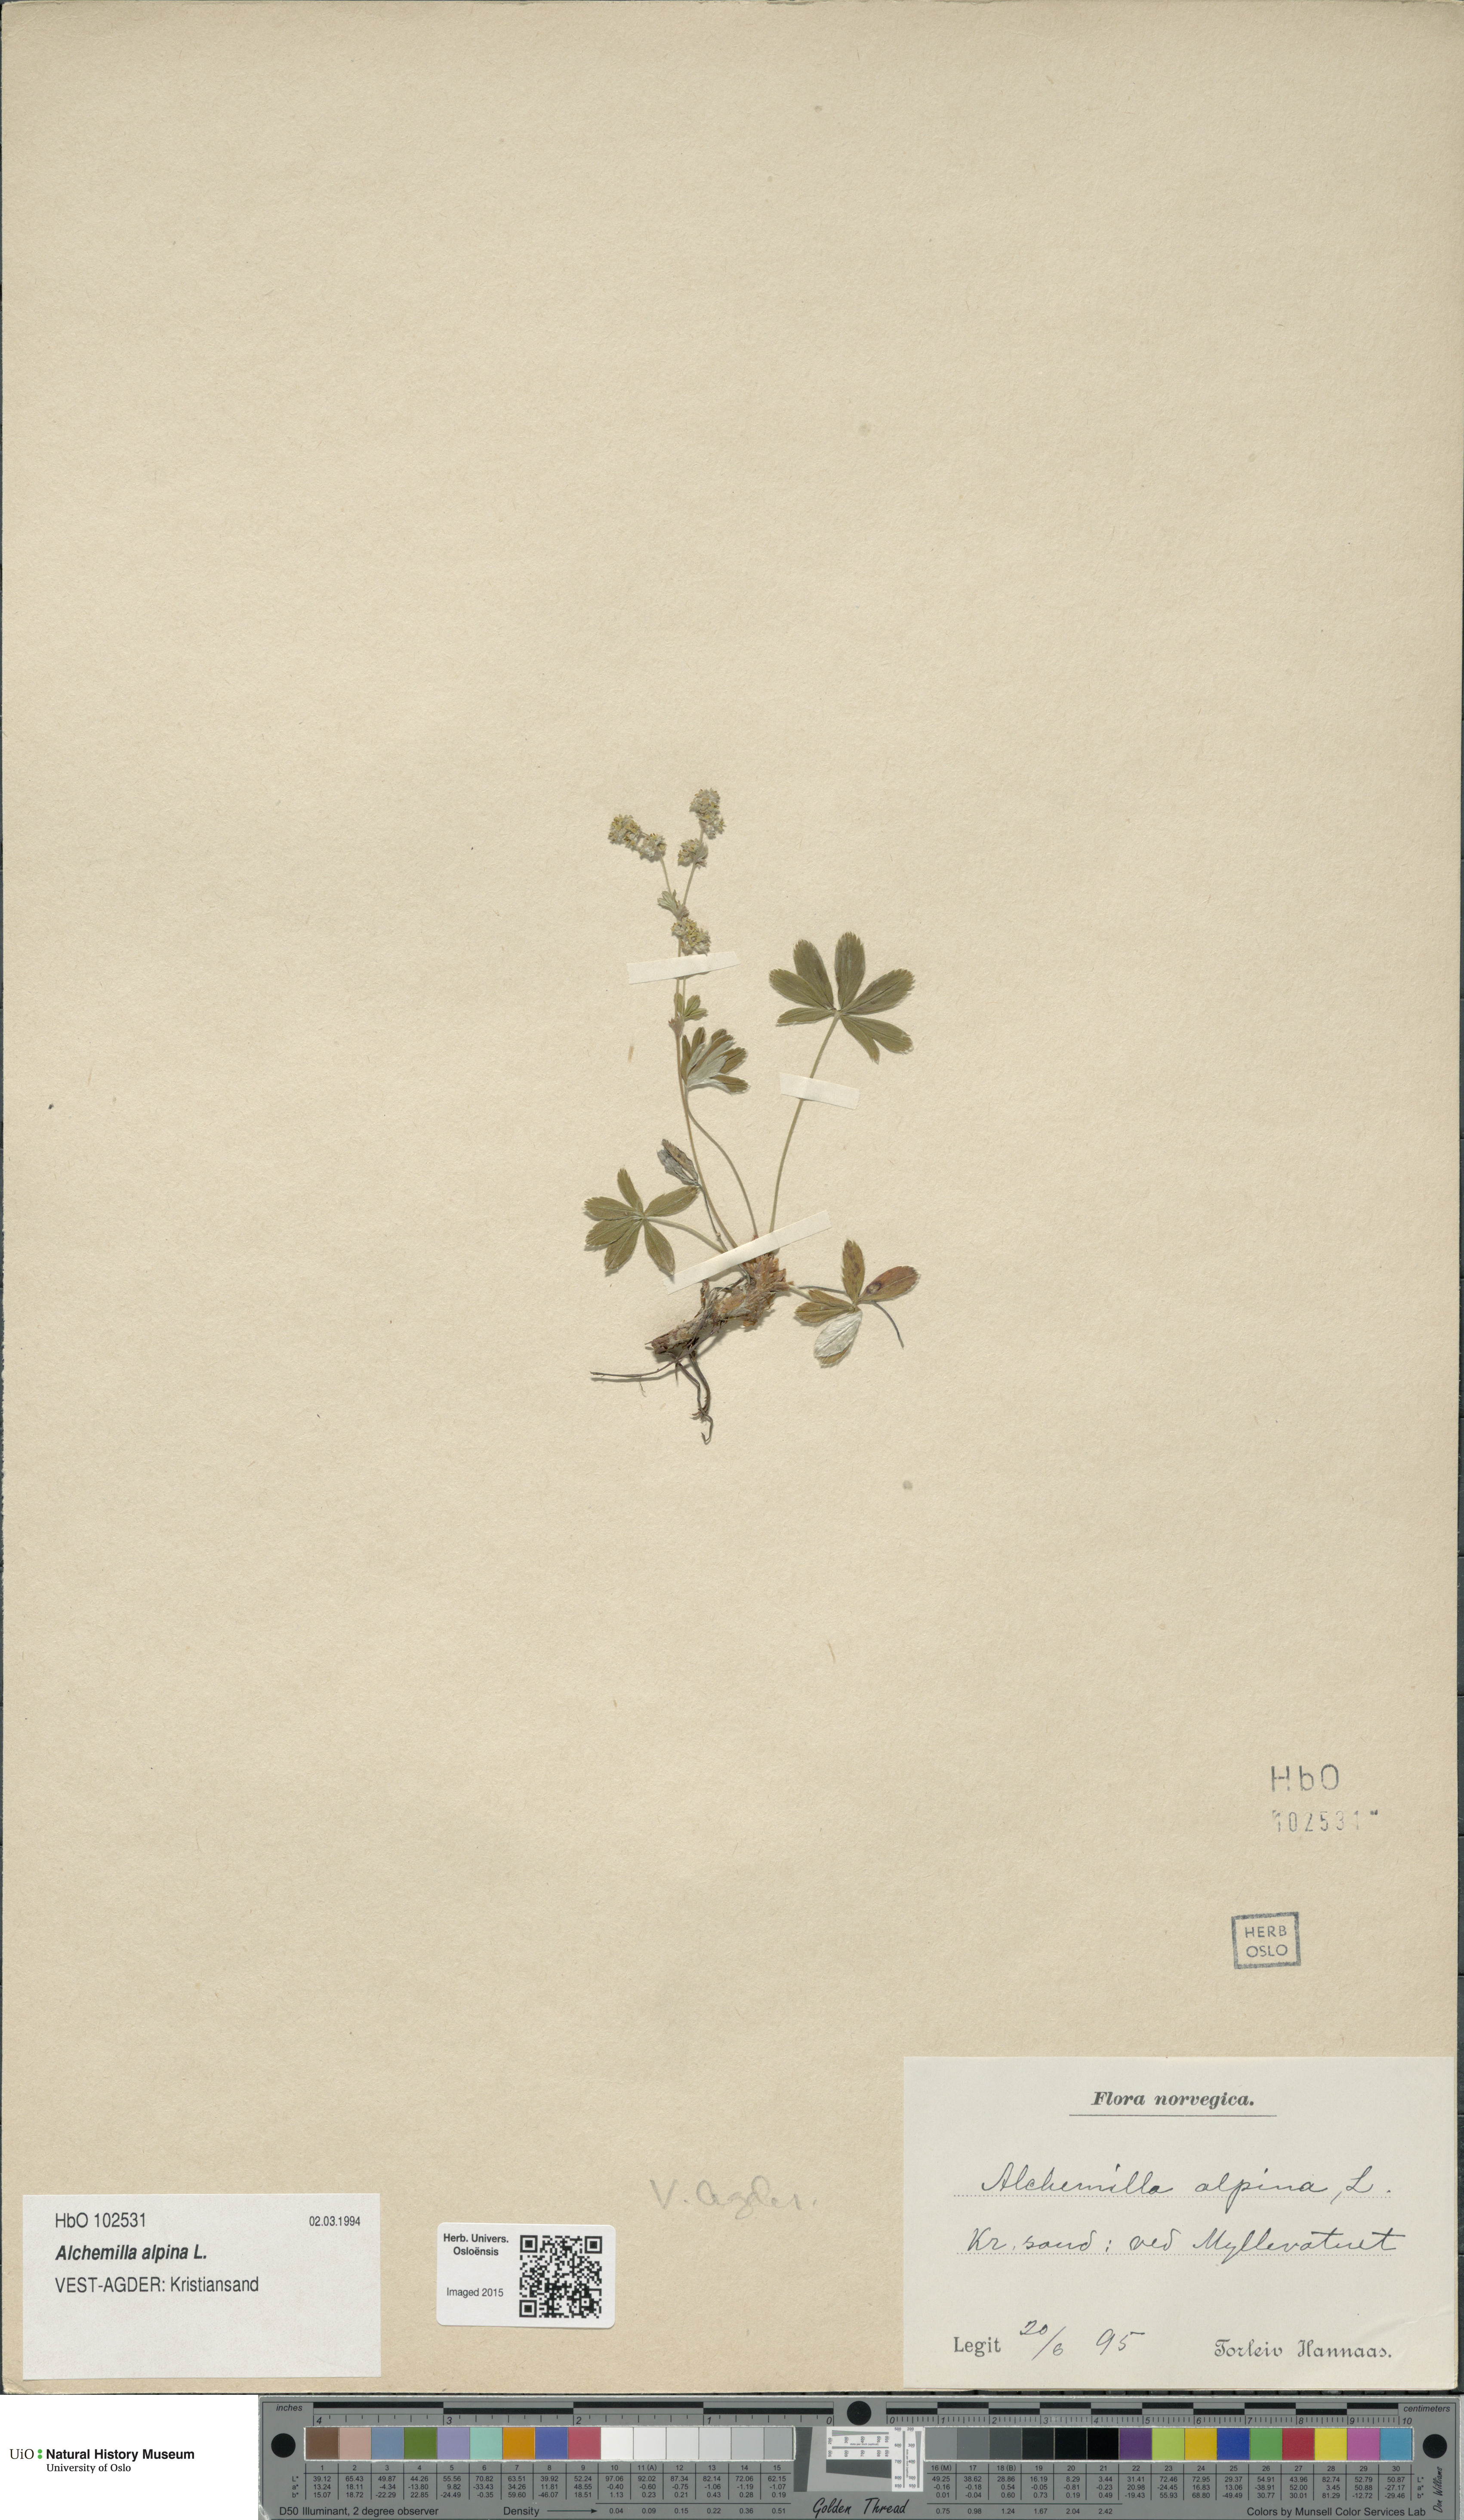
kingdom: Plantae
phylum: Tracheophyta
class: Magnoliopsida
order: Rosales
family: Rosaceae
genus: Alchemilla
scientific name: Alchemilla alpina
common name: Alpine lady's-mantle
